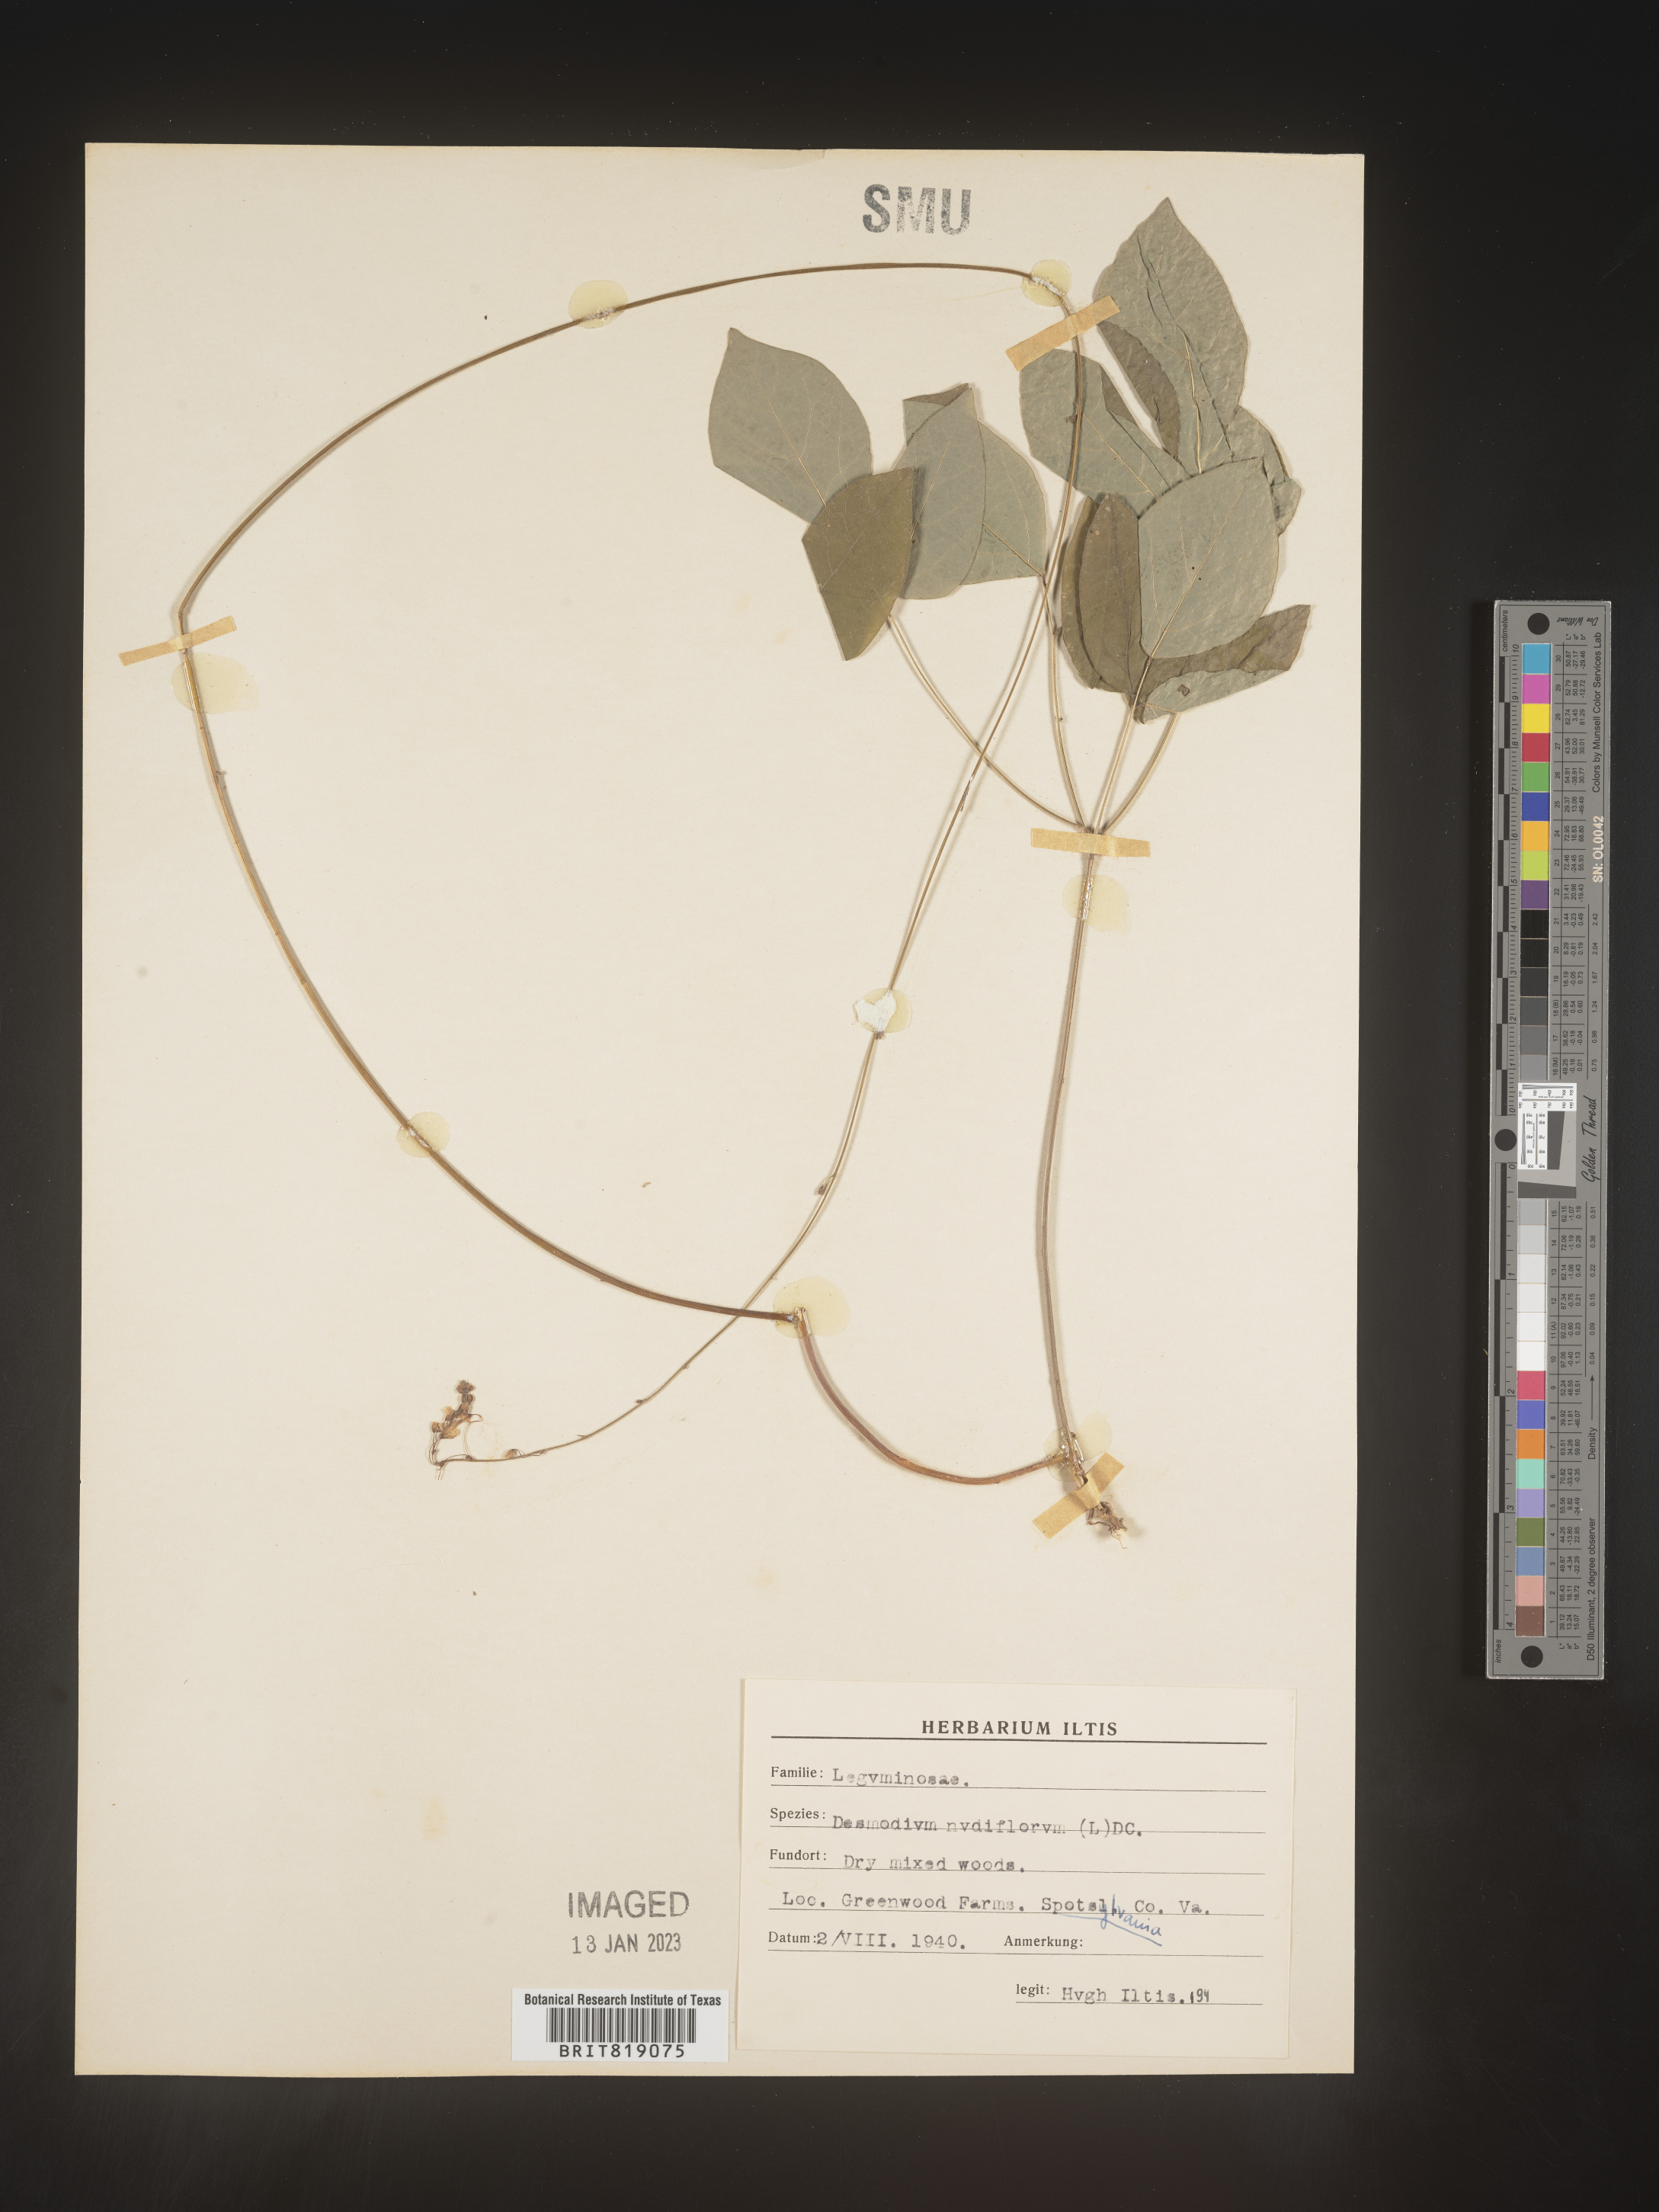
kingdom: Plantae
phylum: Tracheophyta
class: Magnoliopsida
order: Fabales
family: Fabaceae
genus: Hylodesmum
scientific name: Hylodesmum nudiflorum
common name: Bare-stemmed tick-trefoil
